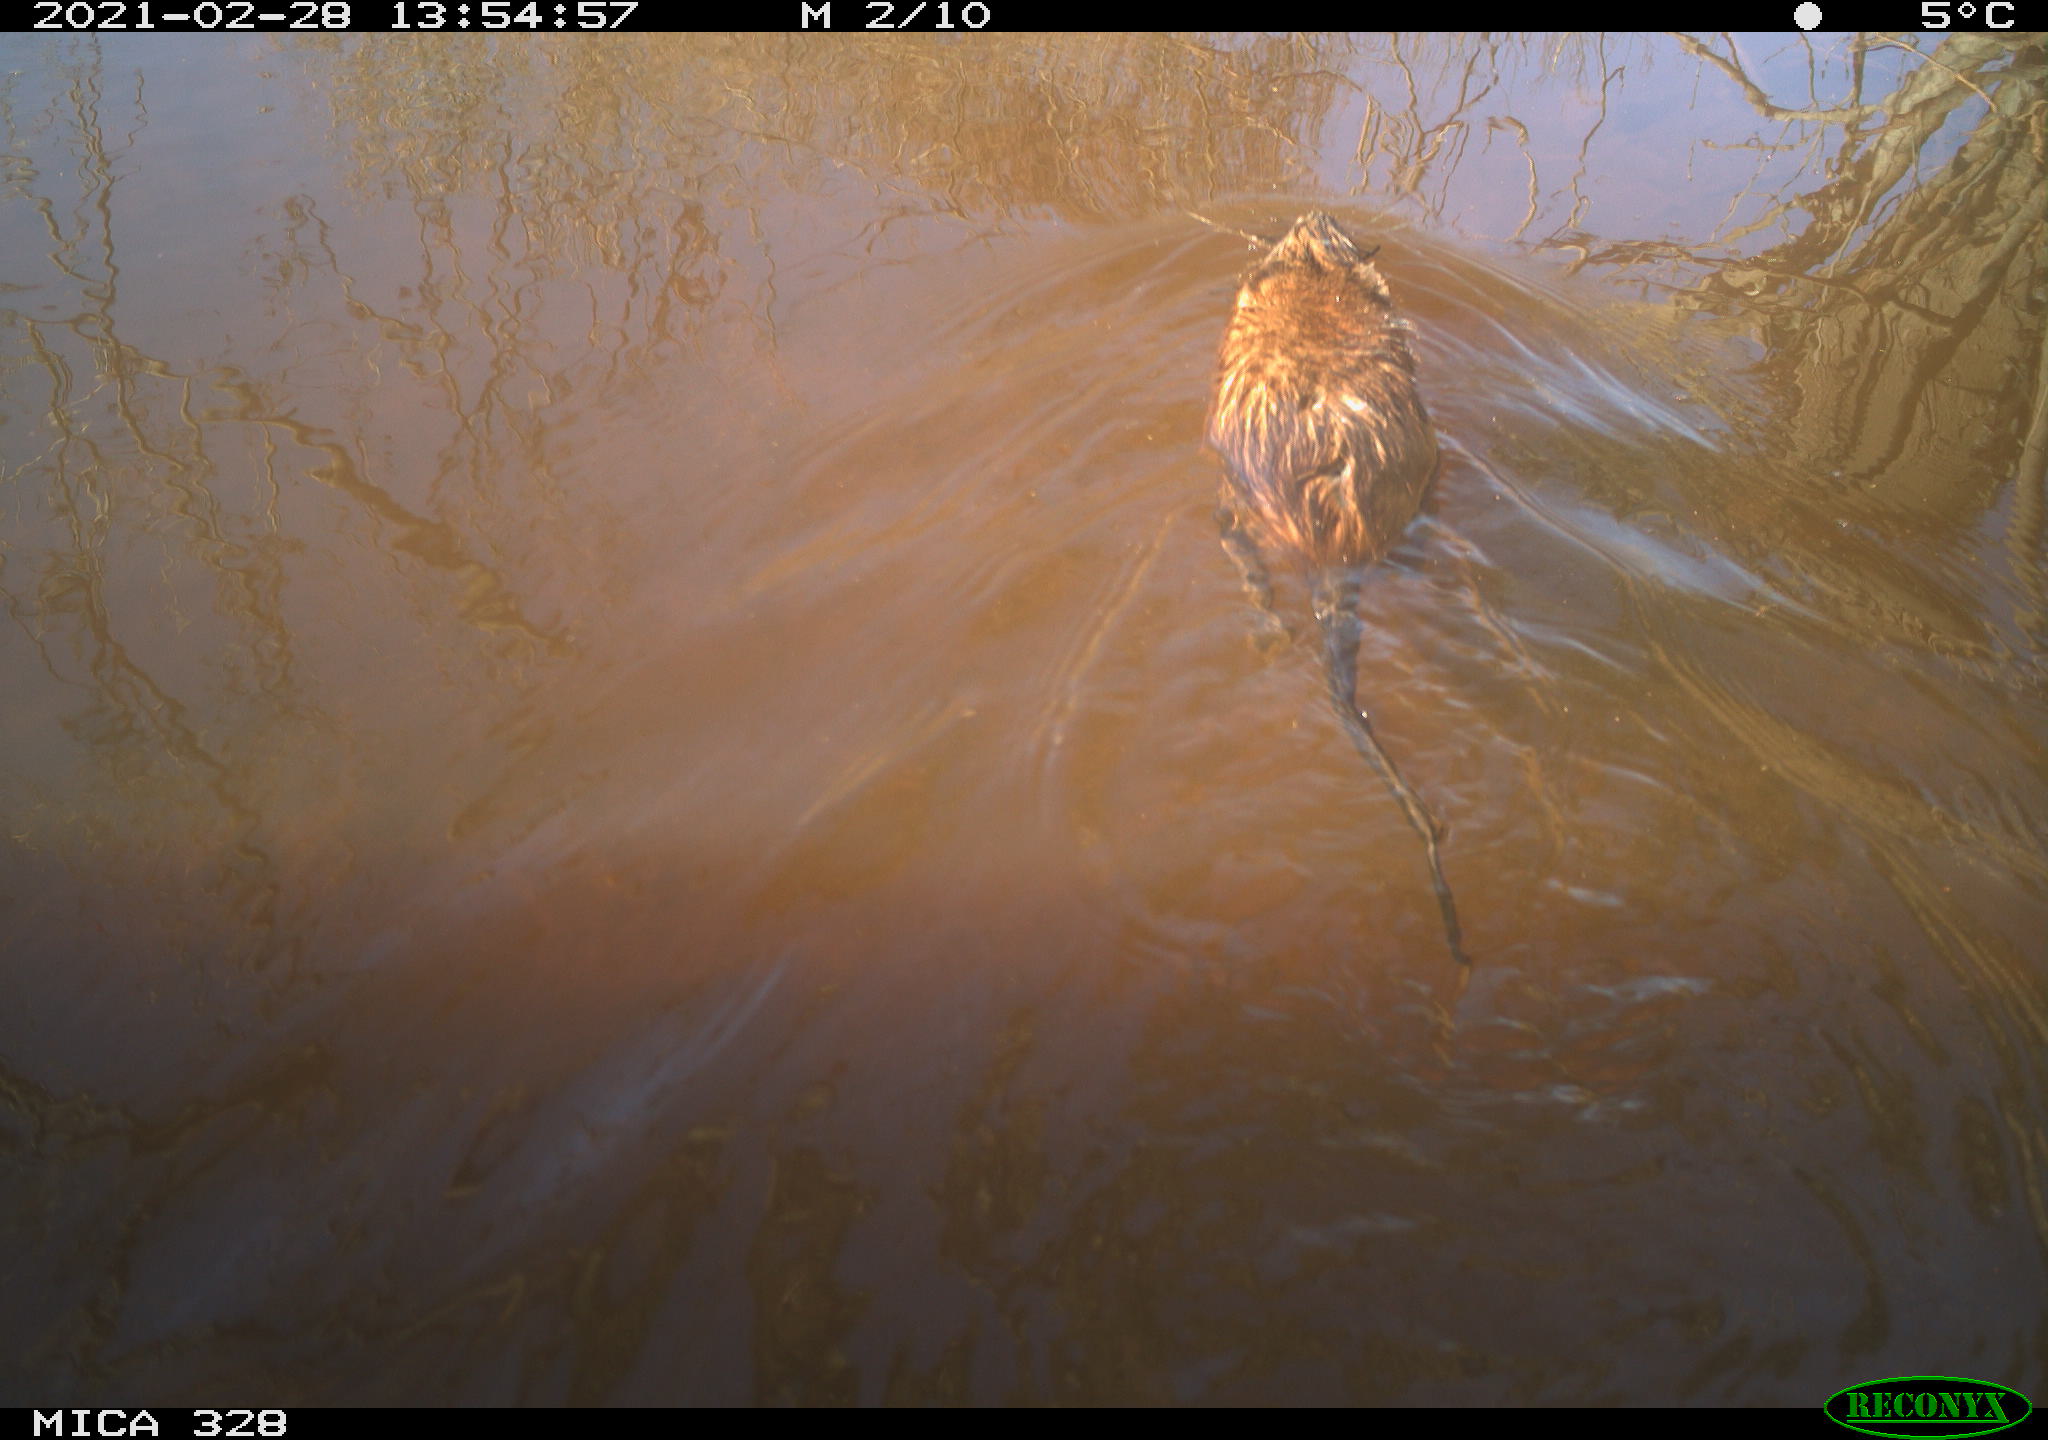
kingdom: Animalia
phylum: Chordata
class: Mammalia
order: Rodentia
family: Cricetidae
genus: Ondatra
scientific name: Ondatra zibethicus
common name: Muskrat
